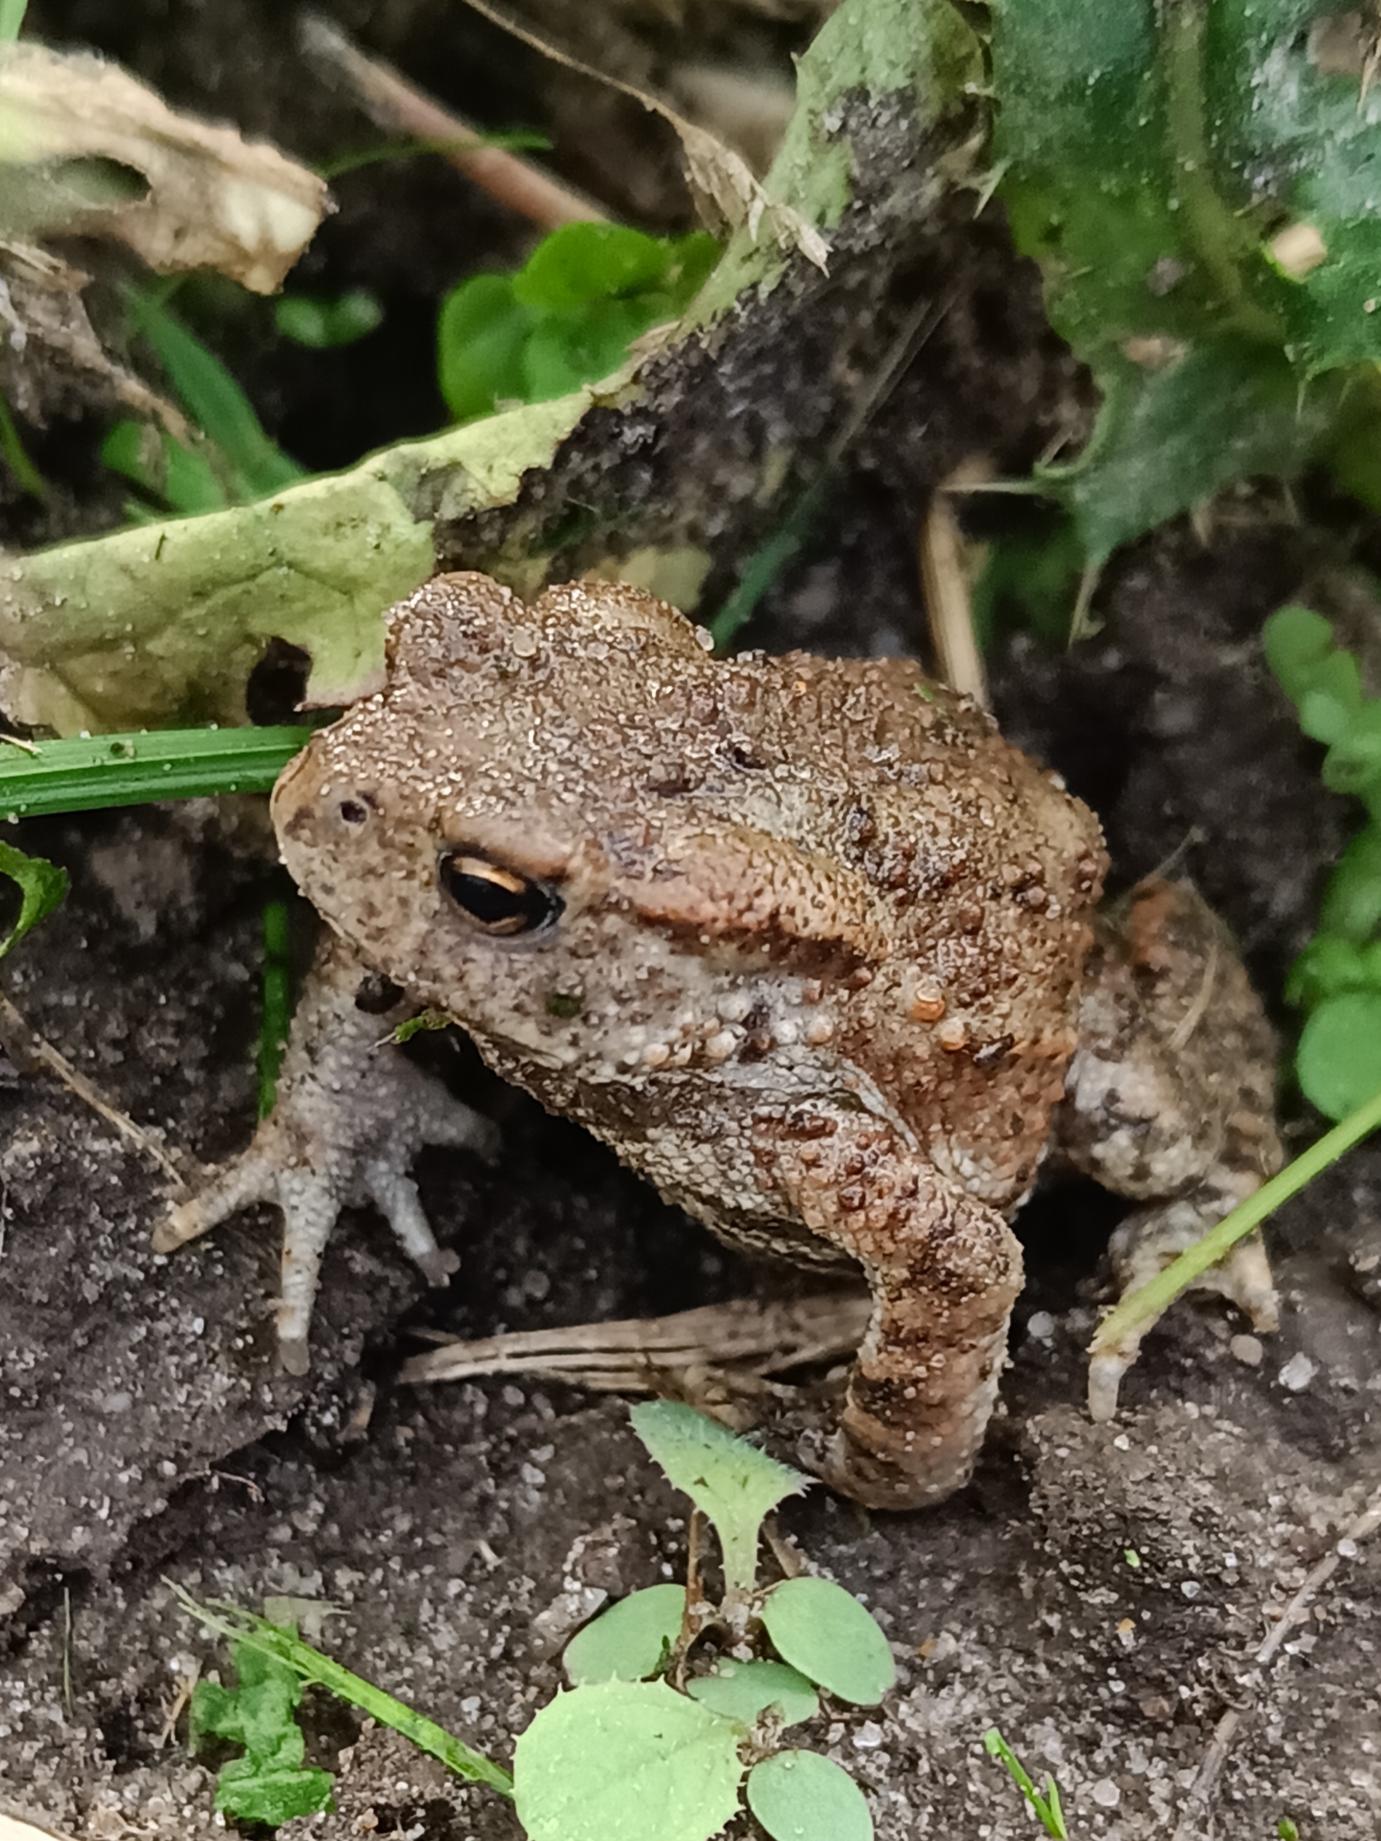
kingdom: Animalia
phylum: Chordata
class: Amphibia
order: Anura
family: Bufonidae
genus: Bufo
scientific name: Bufo bufo
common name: Skrubtudse
